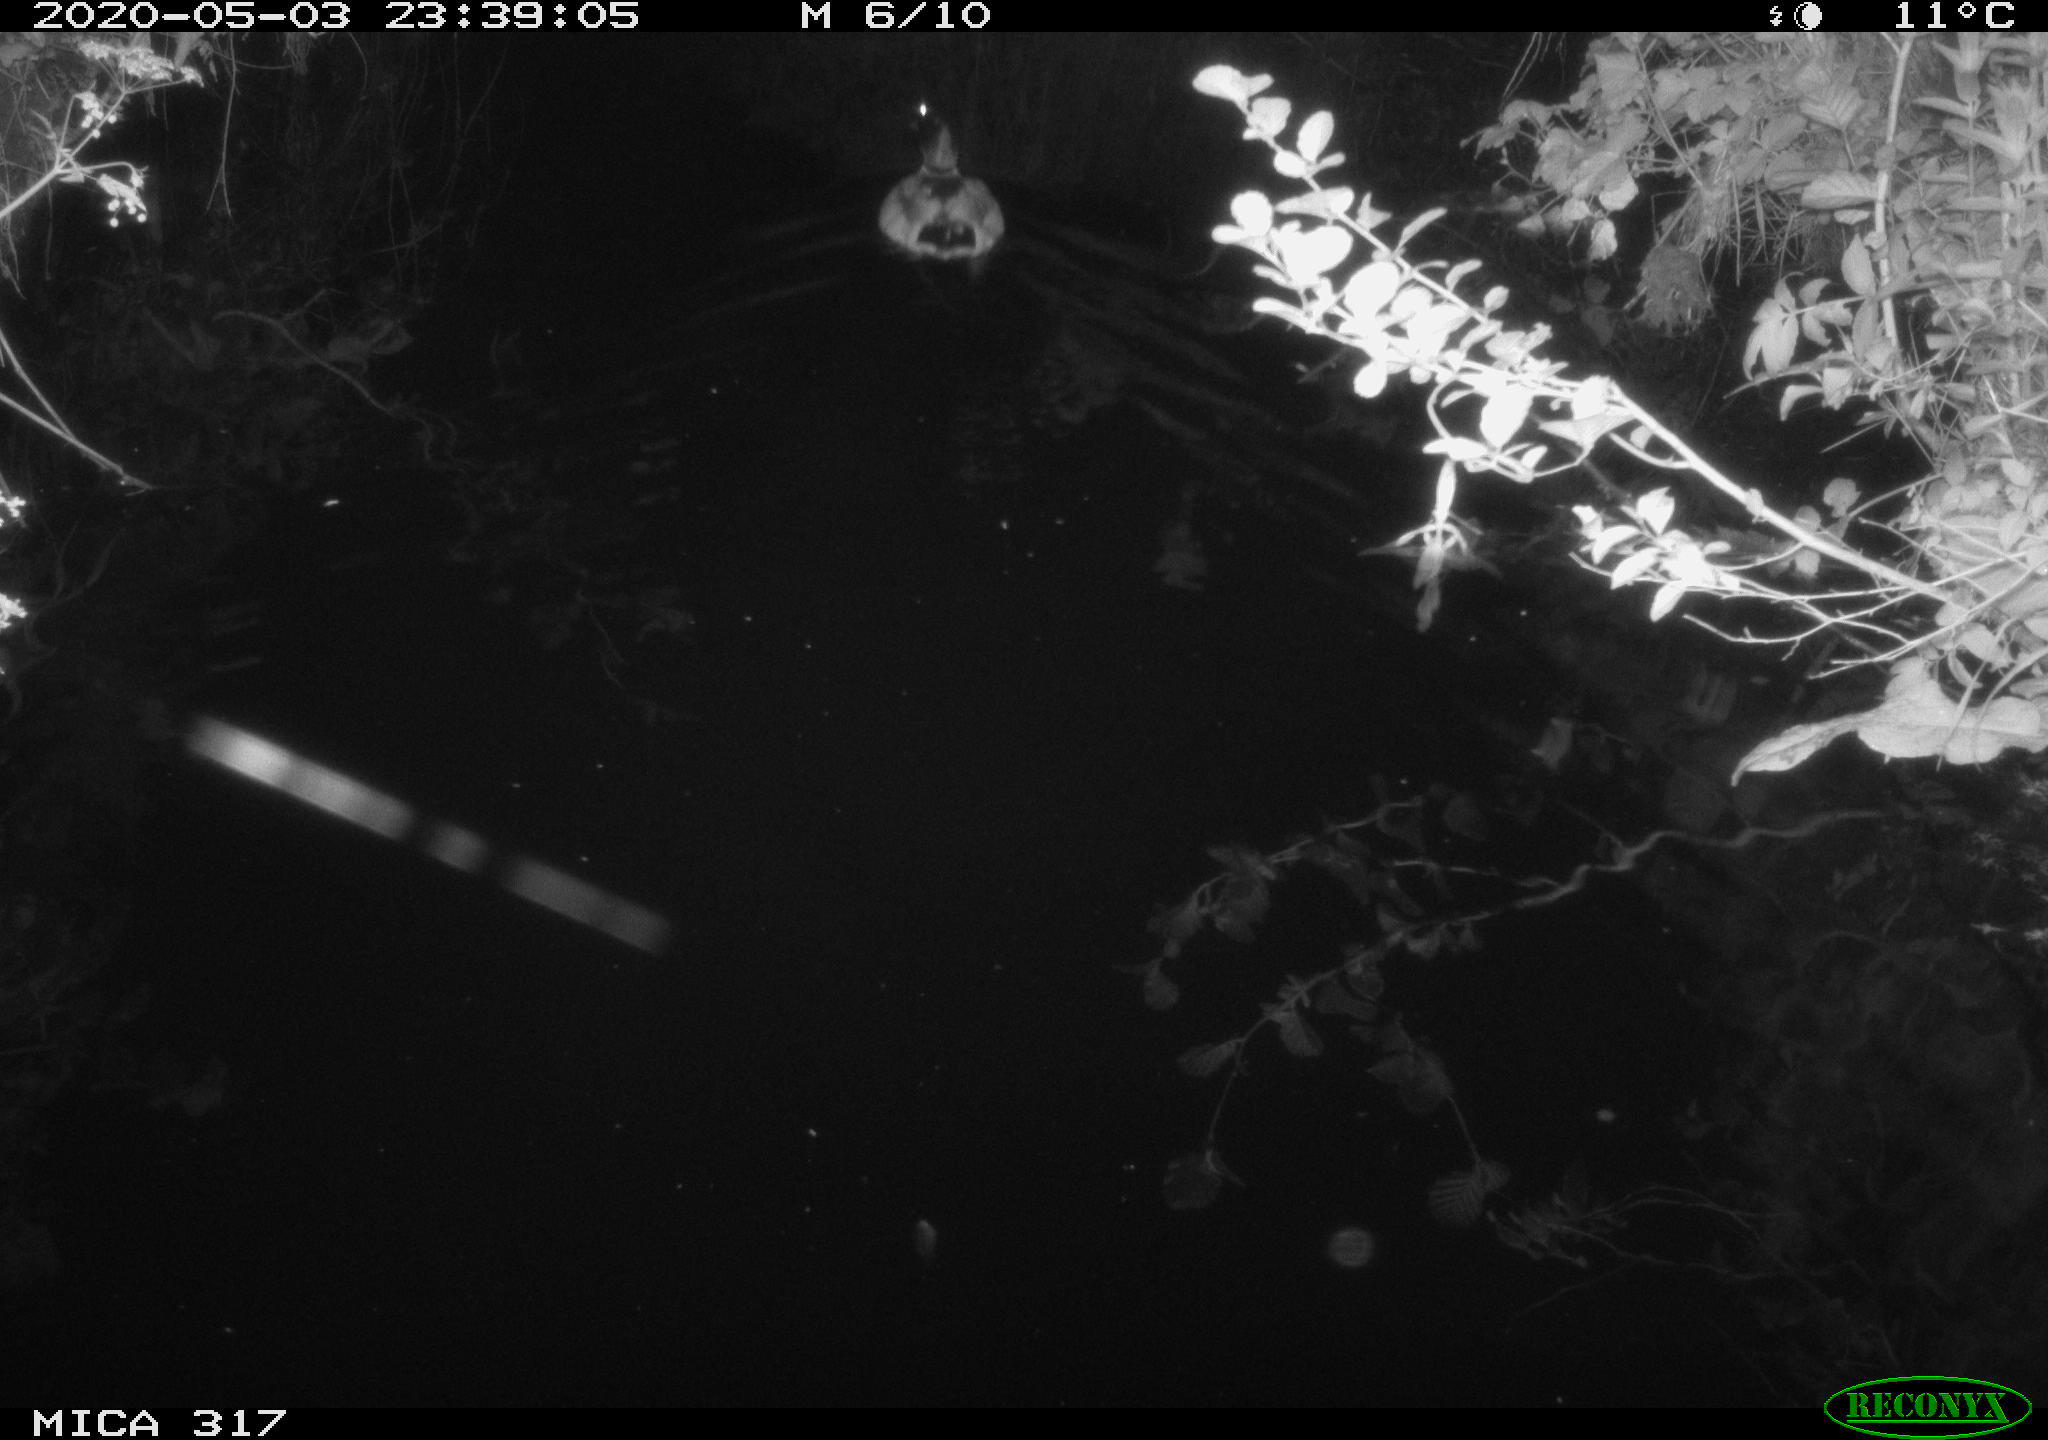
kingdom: Animalia
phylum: Chordata
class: Aves
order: Anseriformes
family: Anatidae
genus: Anas
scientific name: Anas platyrhynchos
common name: Mallard
